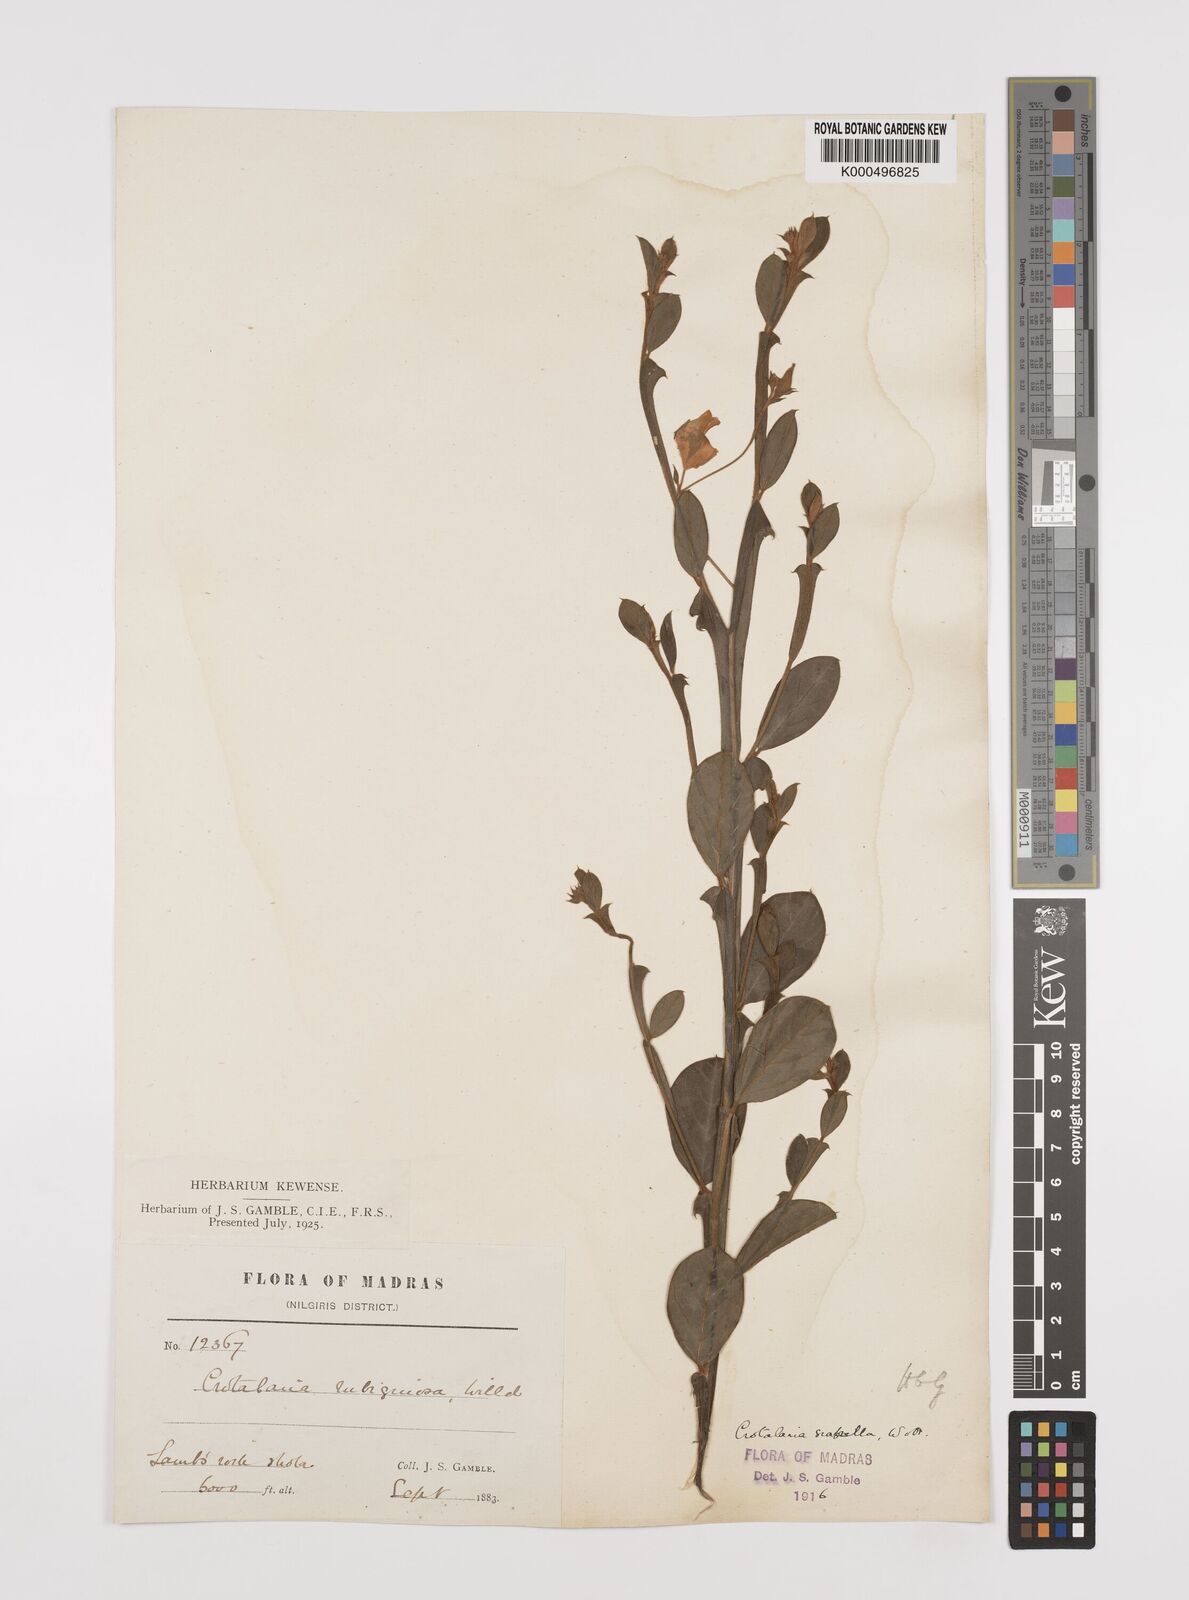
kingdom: Plantae
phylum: Tracheophyta
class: Magnoliopsida
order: Fabales
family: Fabaceae
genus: Crotalaria
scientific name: Crotalaria scabrella
